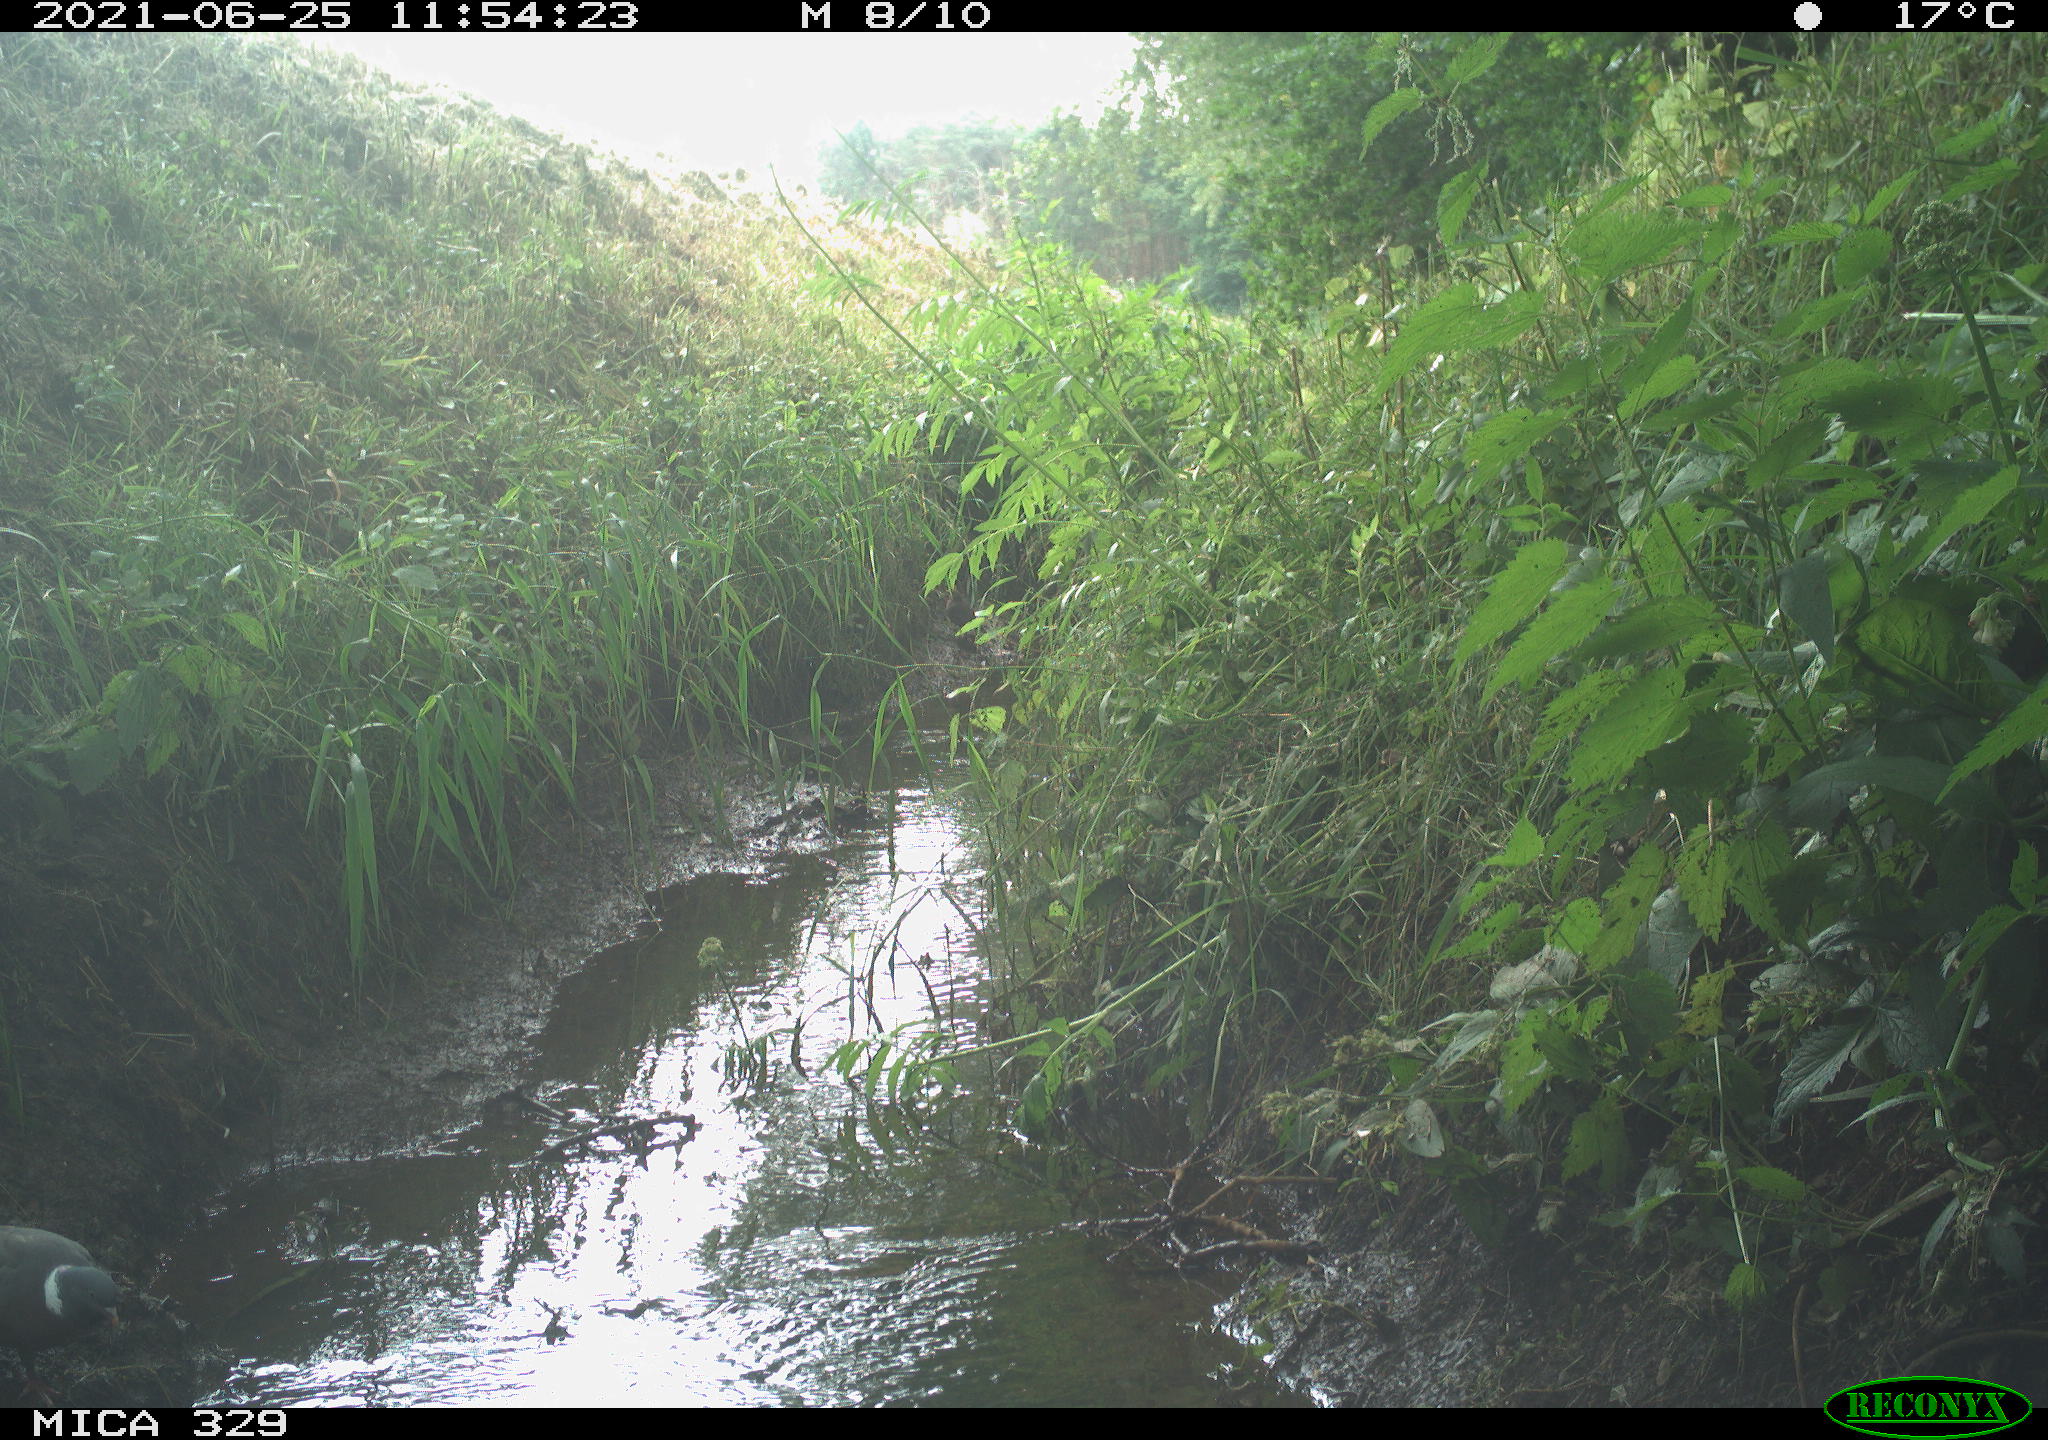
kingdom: Animalia
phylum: Chordata
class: Aves
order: Columbiformes
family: Columbidae
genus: Columba
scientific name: Columba palumbus
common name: Common wood pigeon
